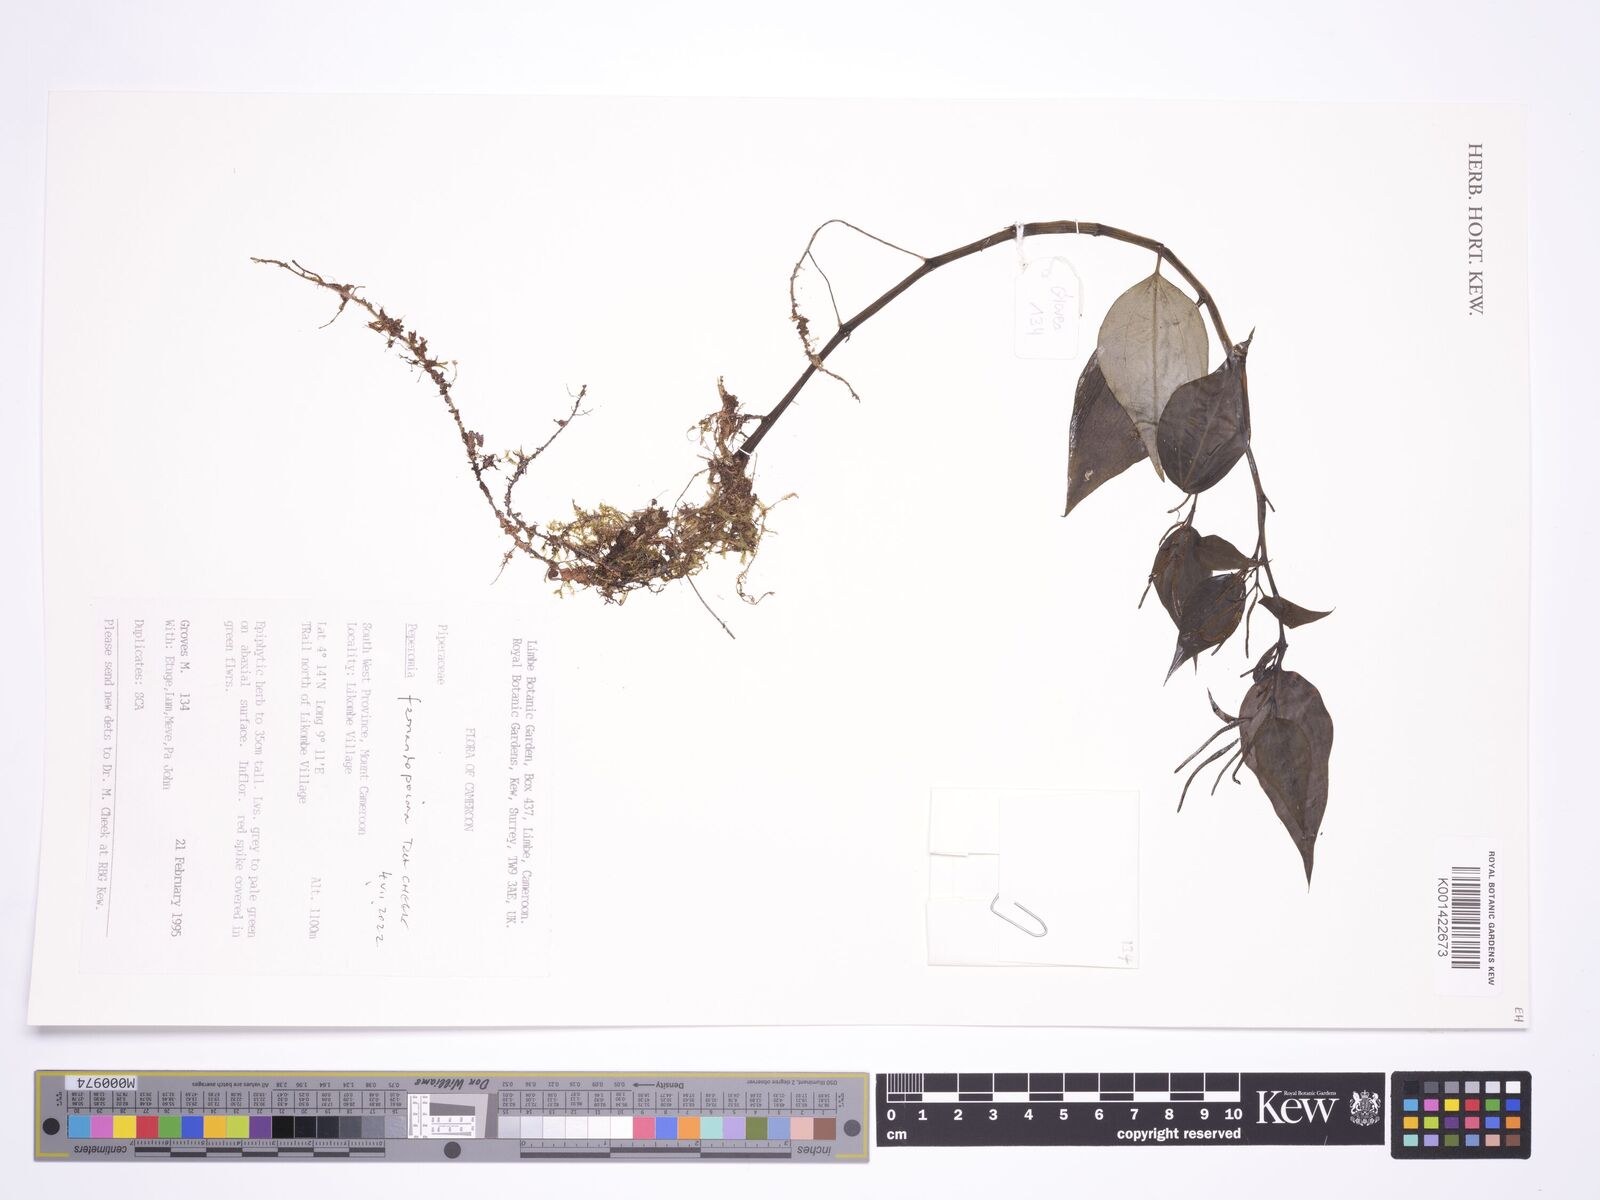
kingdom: Plantae
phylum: Tracheophyta
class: Magnoliopsida
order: Piperales
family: Piperaceae
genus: Peperomia
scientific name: Peperomia fernandopoiana
